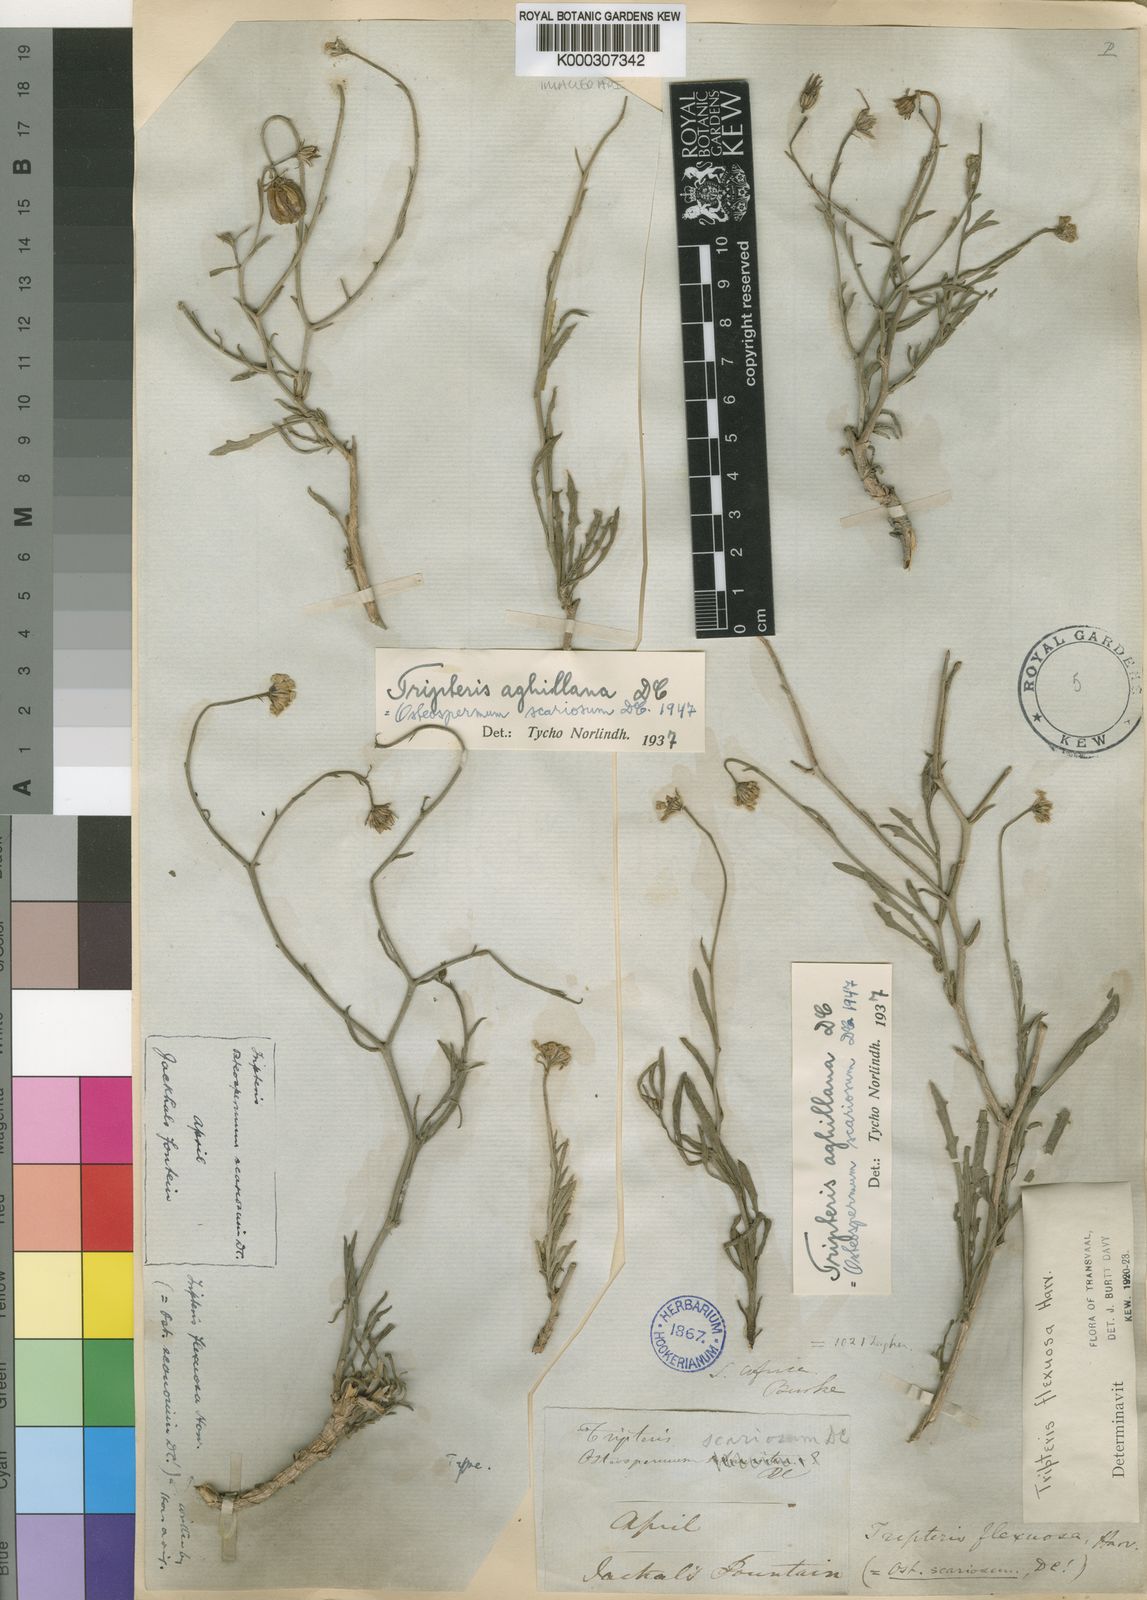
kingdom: Plantae
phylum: Tracheophyta
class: Magnoliopsida
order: Asterales
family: Asteraceae
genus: Osteospermum
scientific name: Osteospermum scariosum
